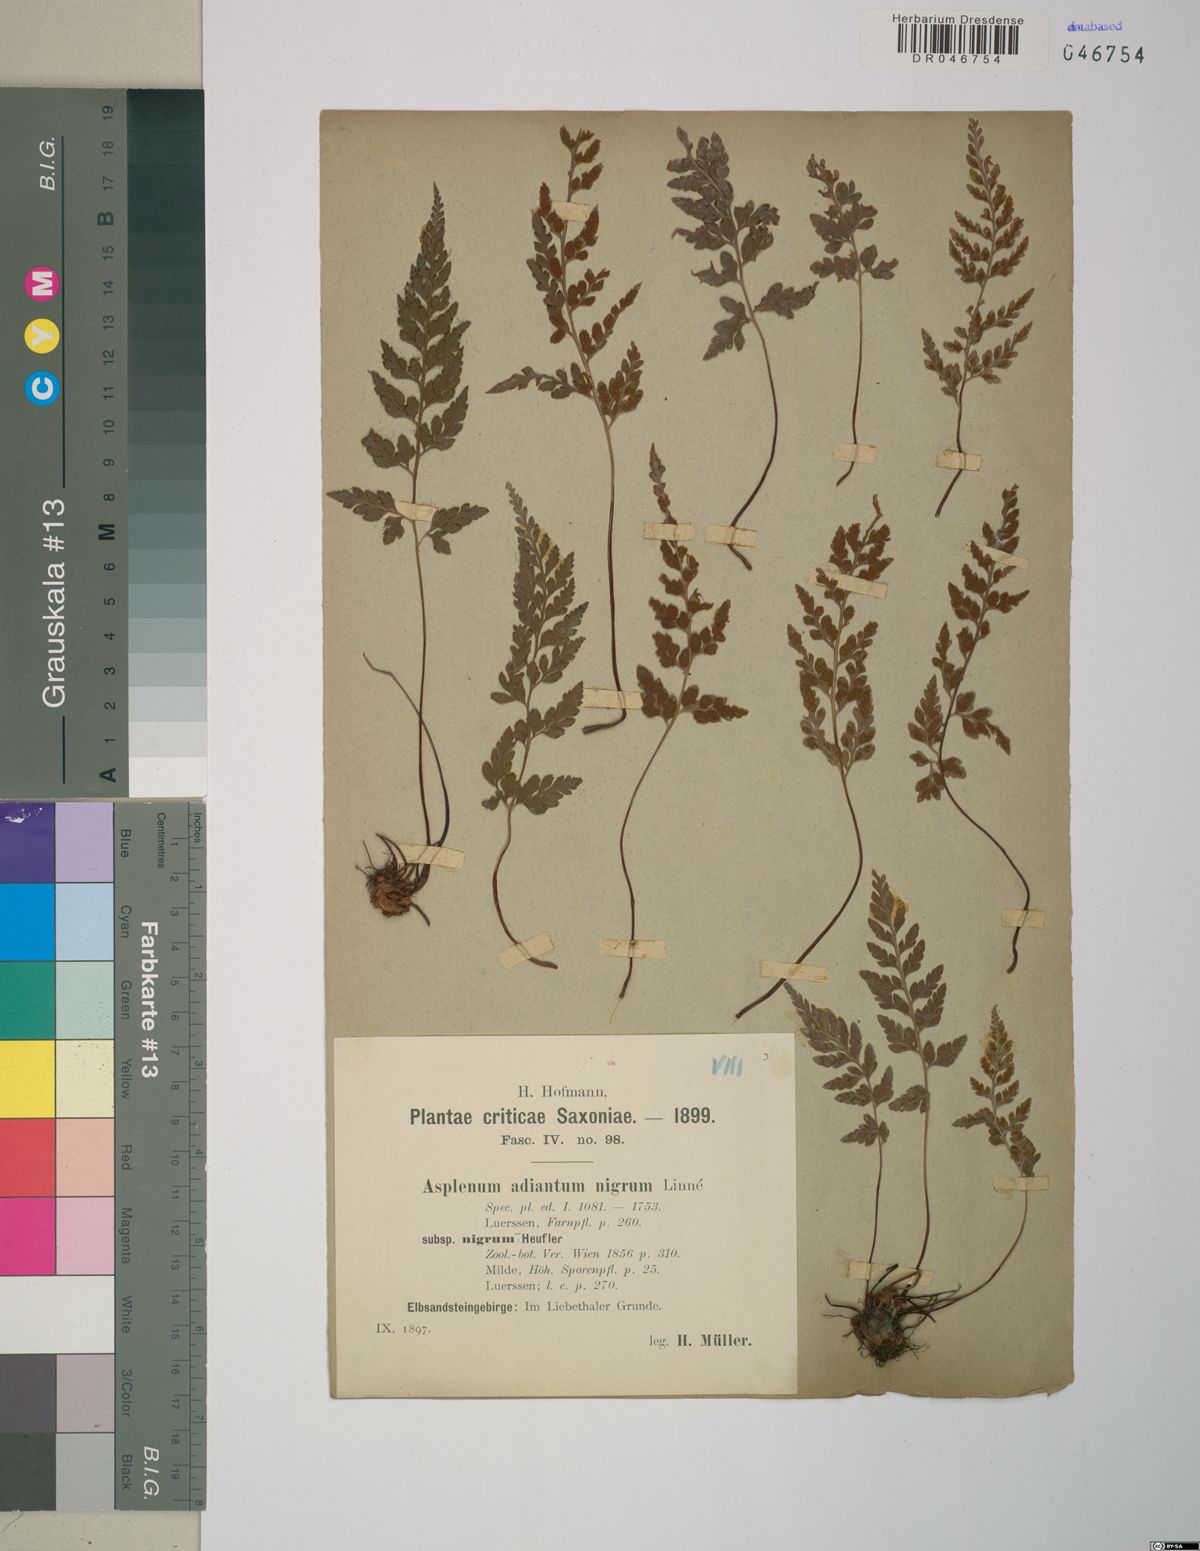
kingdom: Plantae
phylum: Tracheophyta
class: Polypodiopsida
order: Polypodiales
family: Aspleniaceae
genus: Asplenium
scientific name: Asplenium adiantum-nigrum
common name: Black spleenwort
